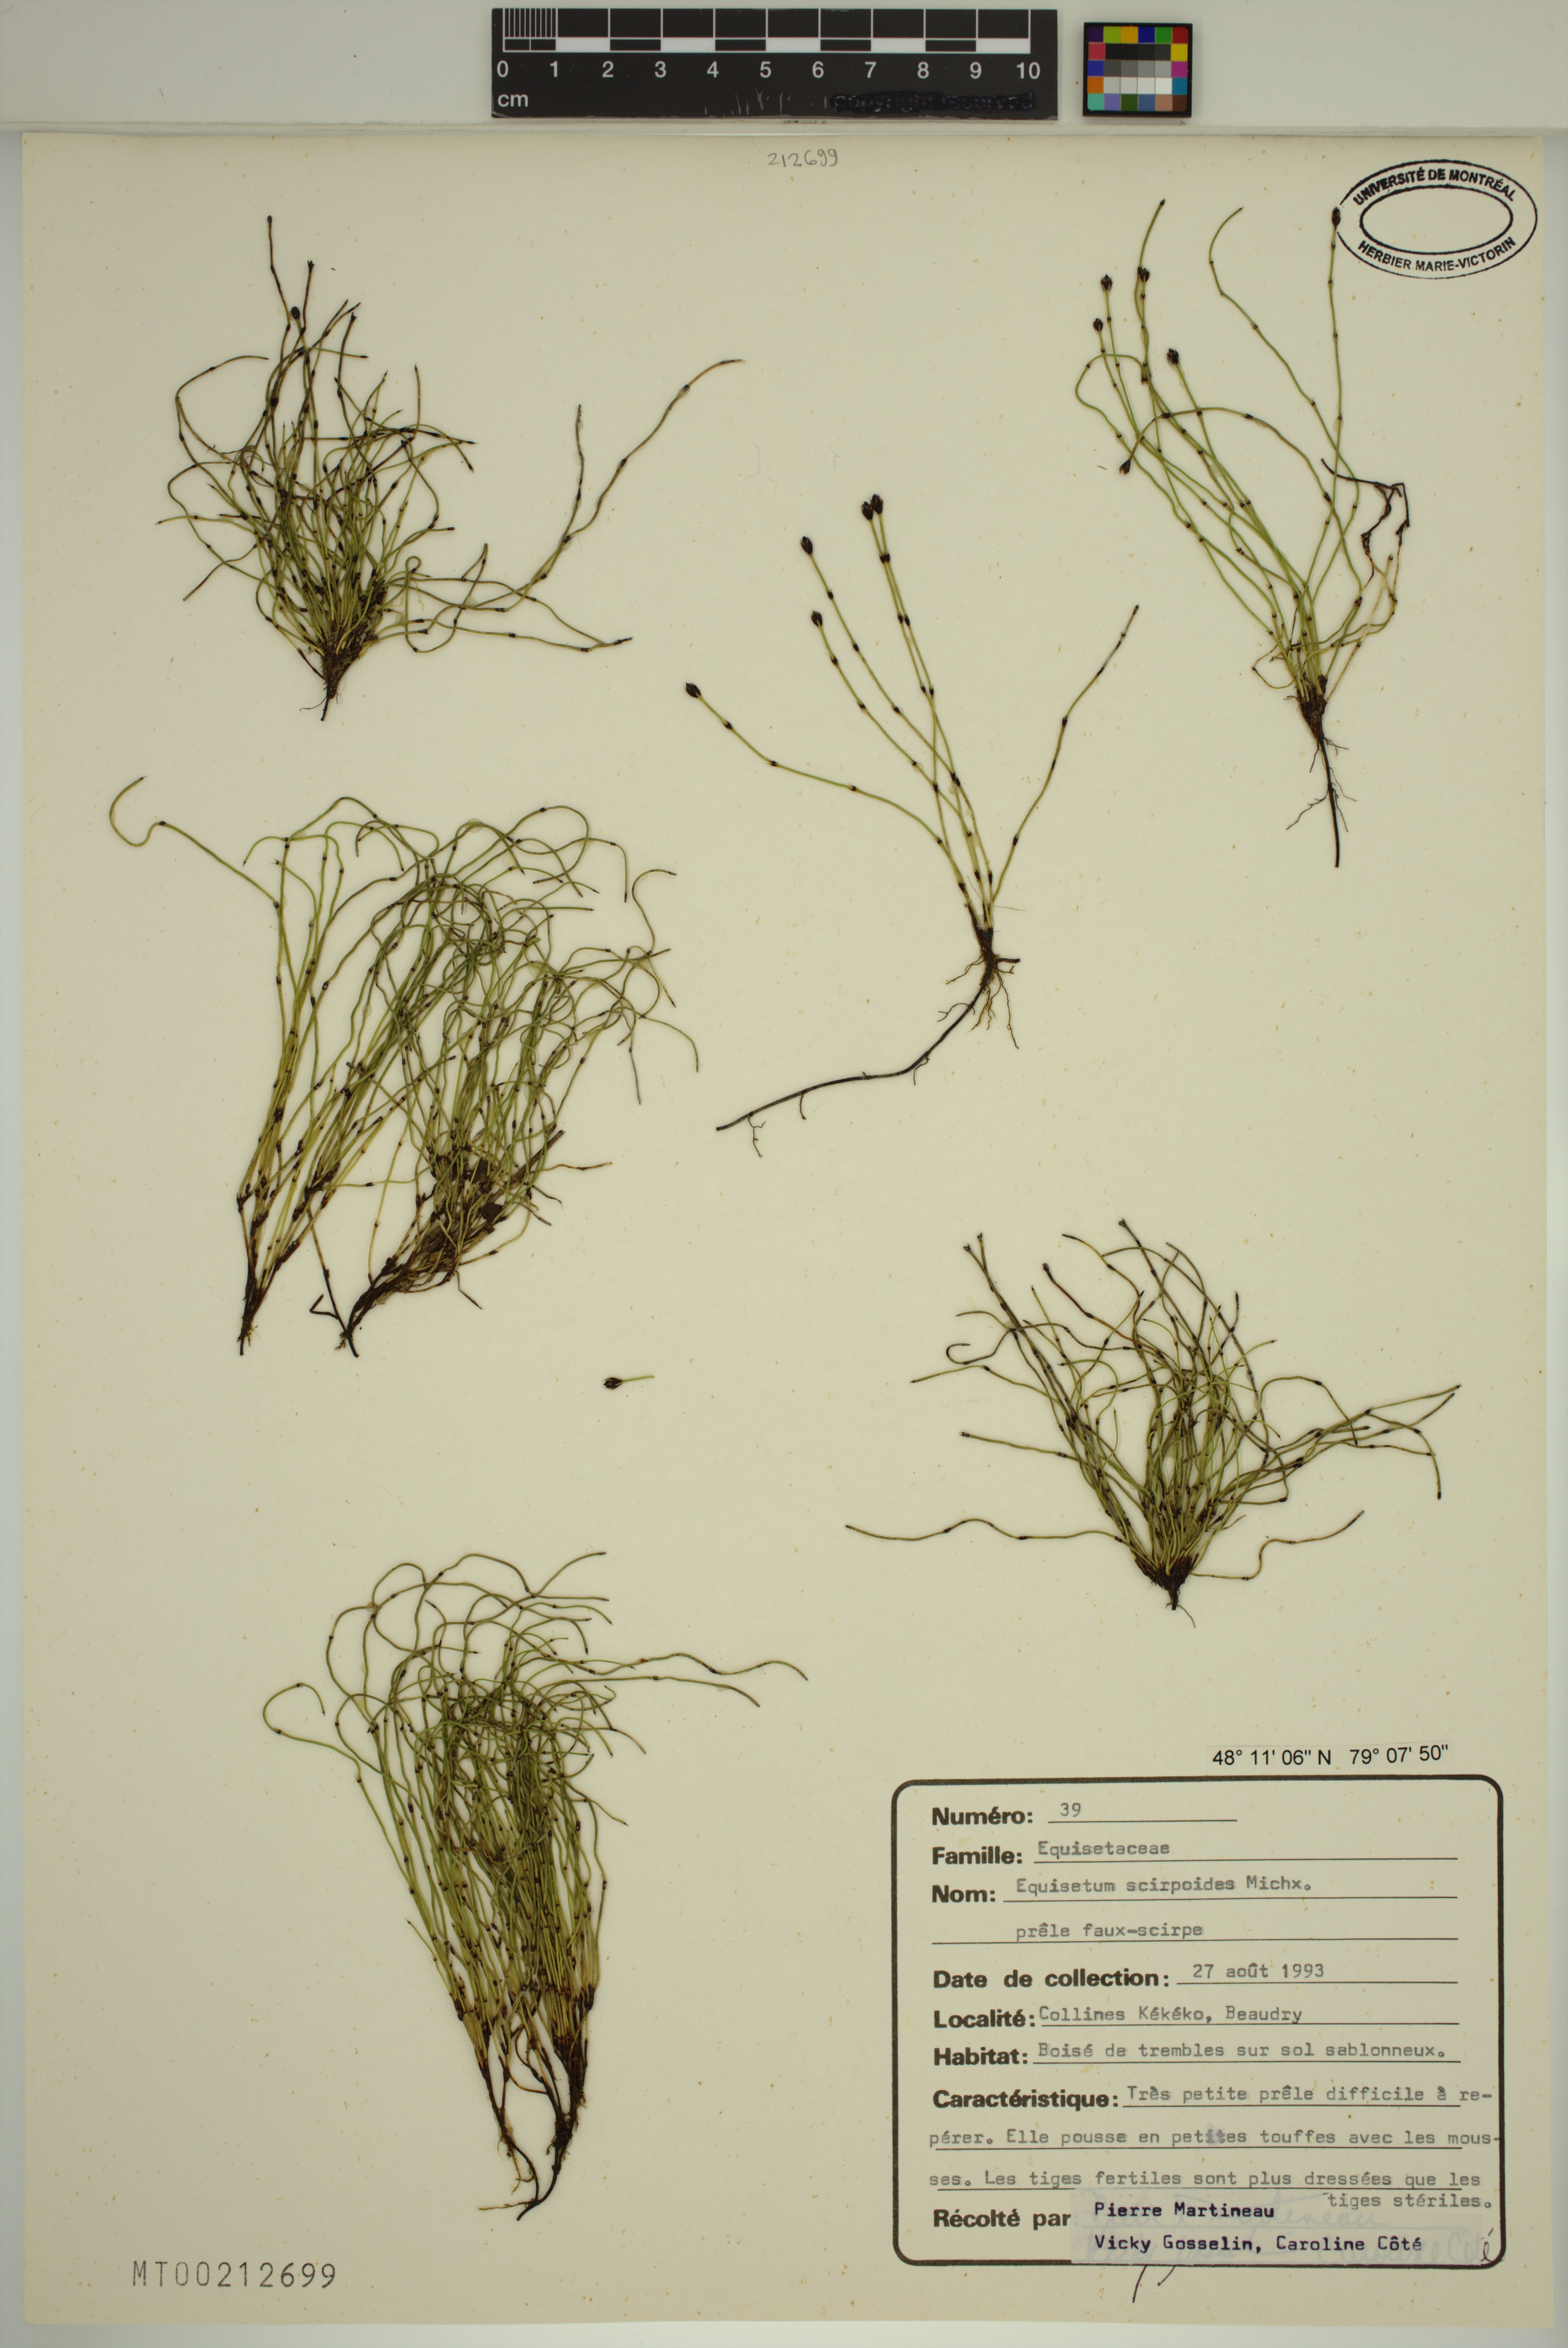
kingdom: Plantae
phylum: Tracheophyta
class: Polypodiopsida
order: Equisetales
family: Equisetaceae
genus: Equisetum
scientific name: Equisetum scirpoides
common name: Delicate horsetail
